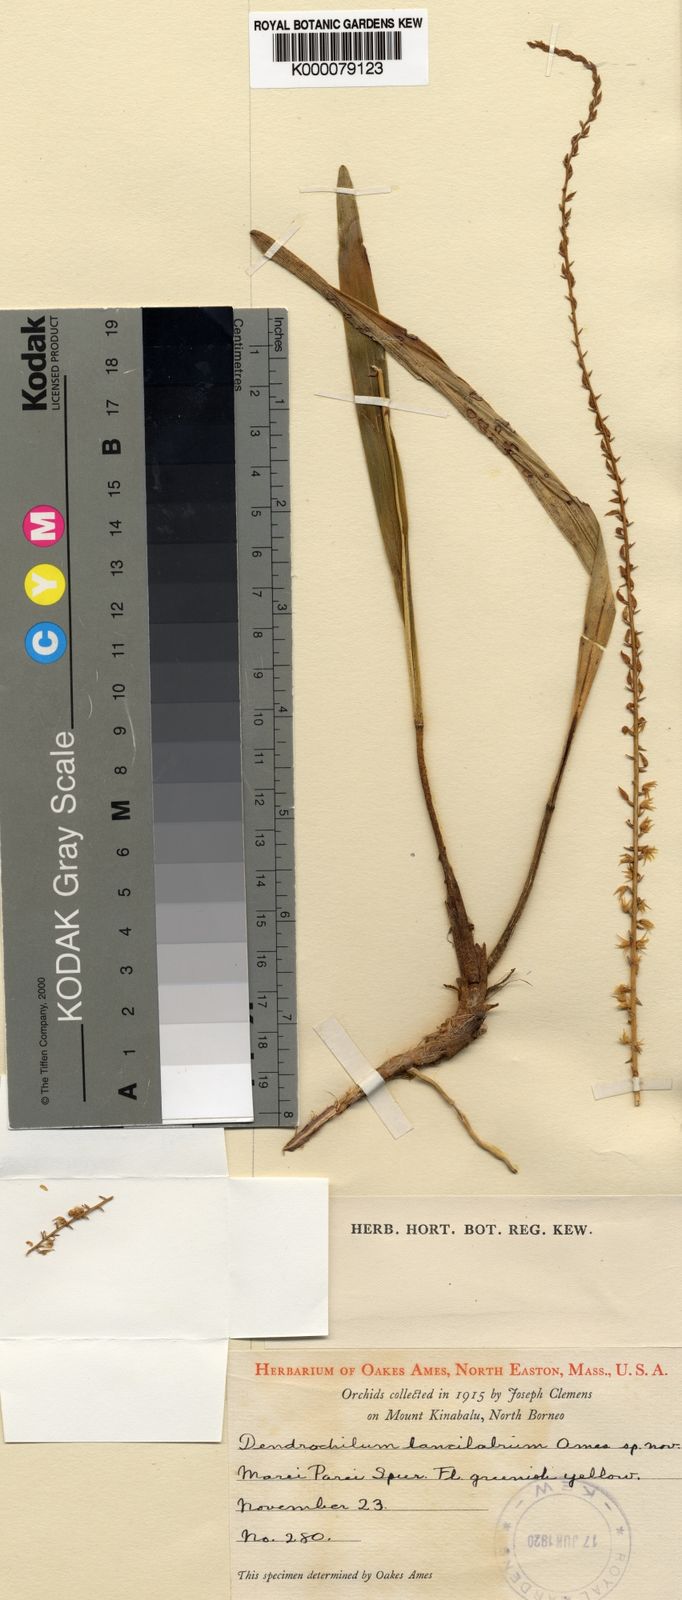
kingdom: Plantae
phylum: Tracheophyta
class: Liliopsida
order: Asparagales
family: Orchidaceae
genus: Coelogyne
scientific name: Coelogyne cuspilabia
